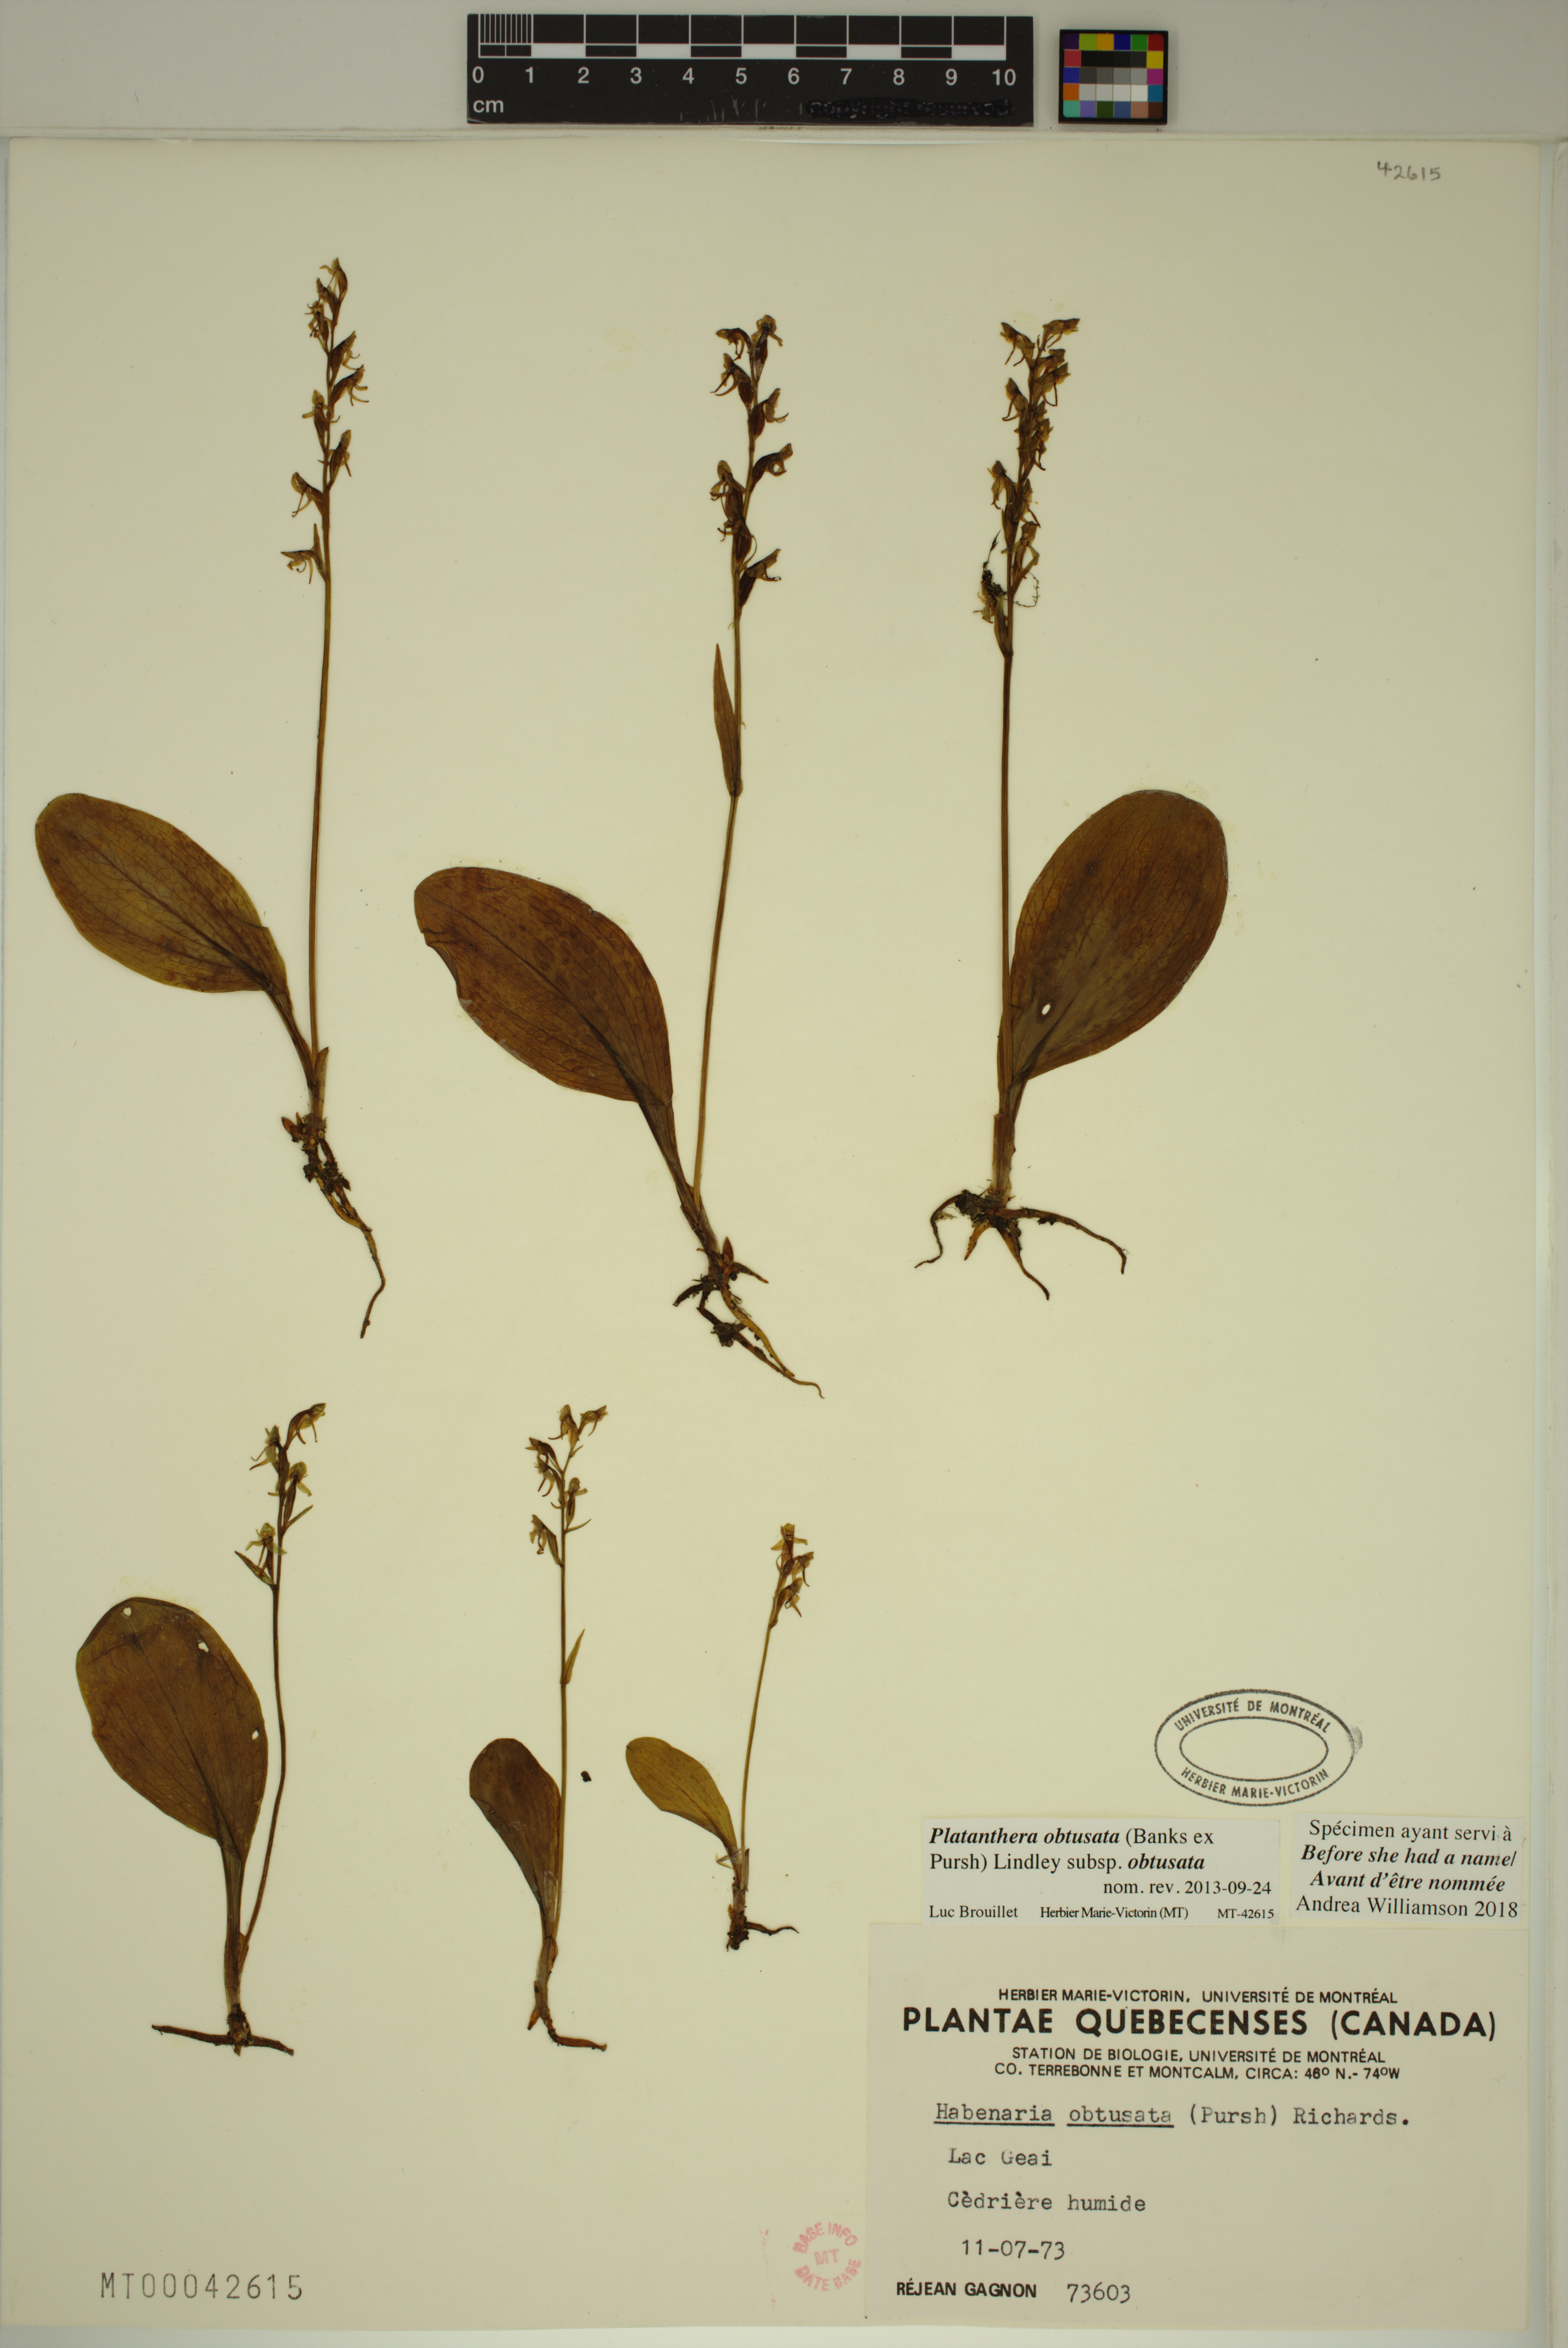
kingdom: Plantae
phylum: Tracheophyta
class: Liliopsida
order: Asparagales
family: Orchidaceae
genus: Platanthera
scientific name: Platanthera obtusata
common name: Blunt bog orchid
